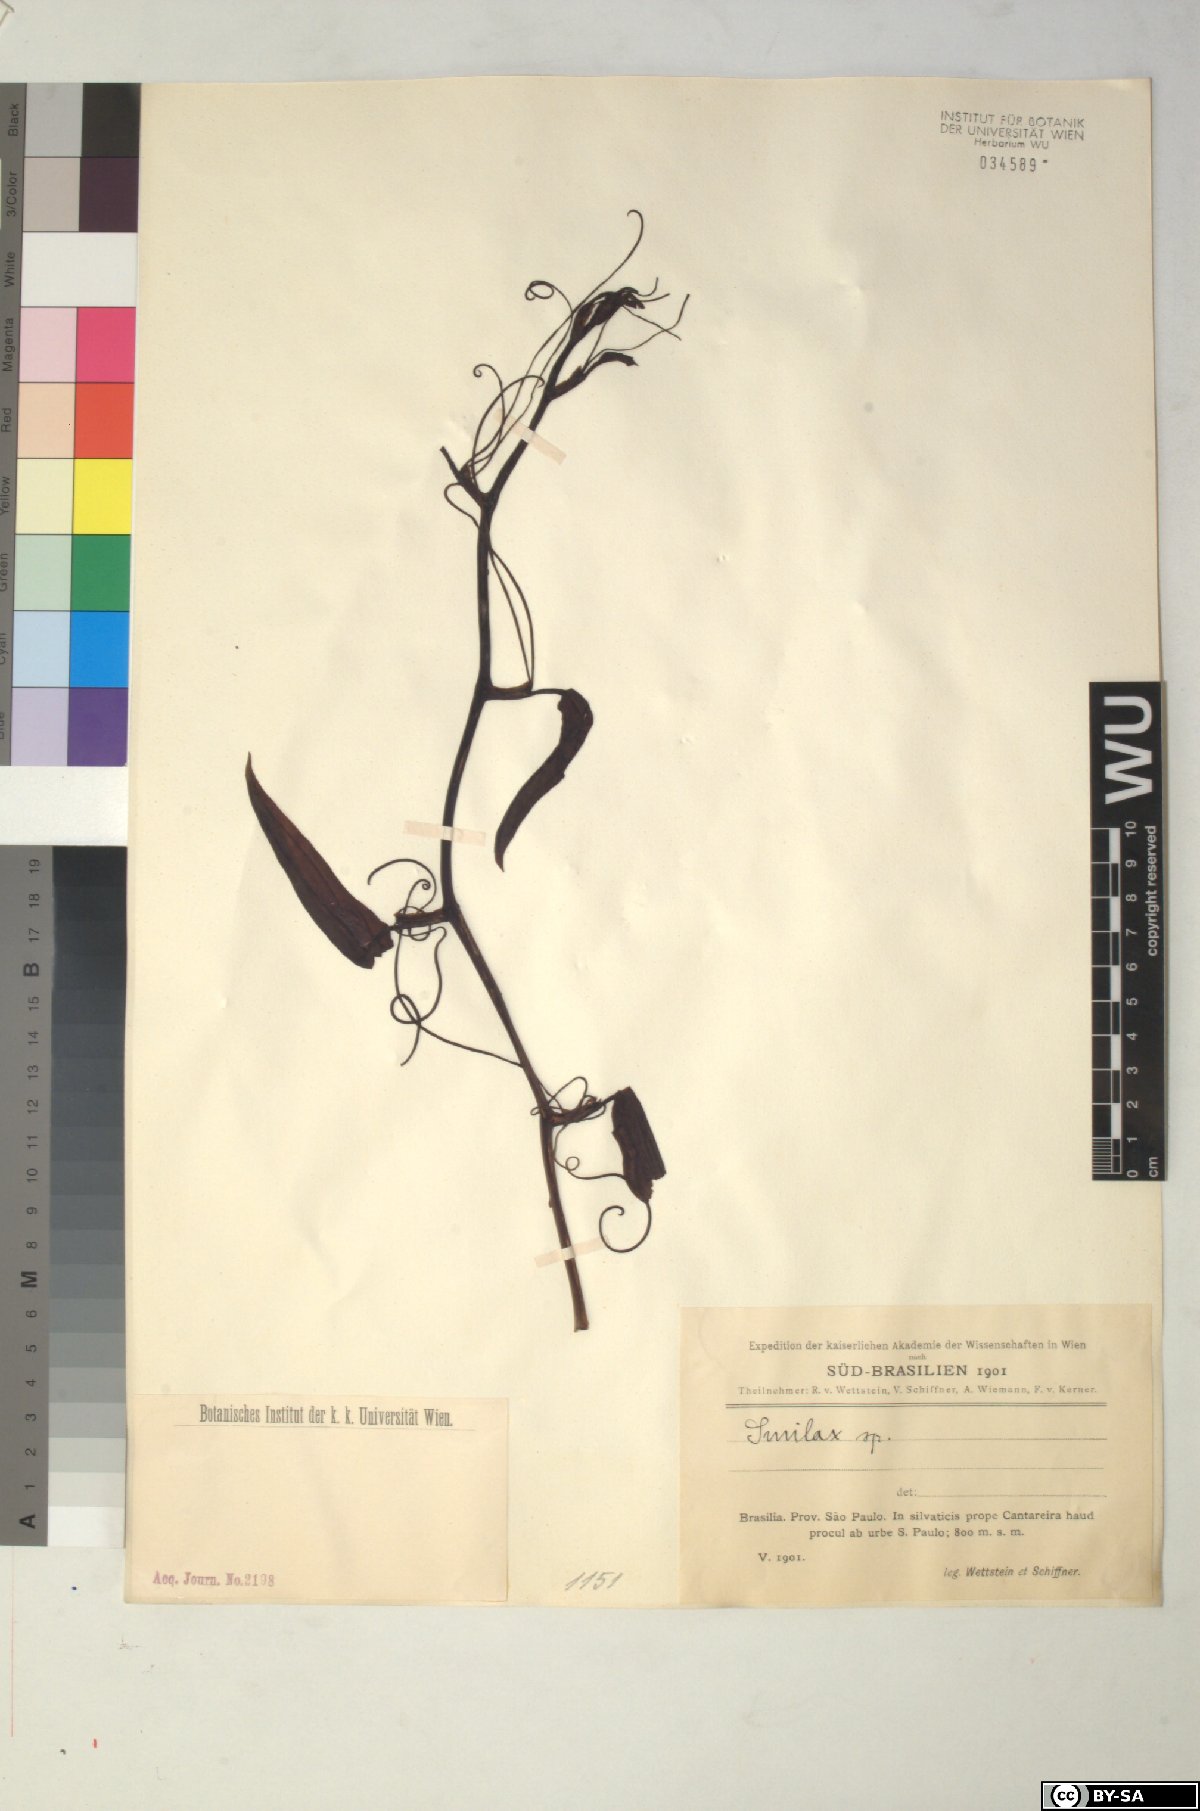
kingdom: Plantae
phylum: Tracheophyta
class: Liliopsida
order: Liliales
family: Smilacaceae
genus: Smilax
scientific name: Smilax
